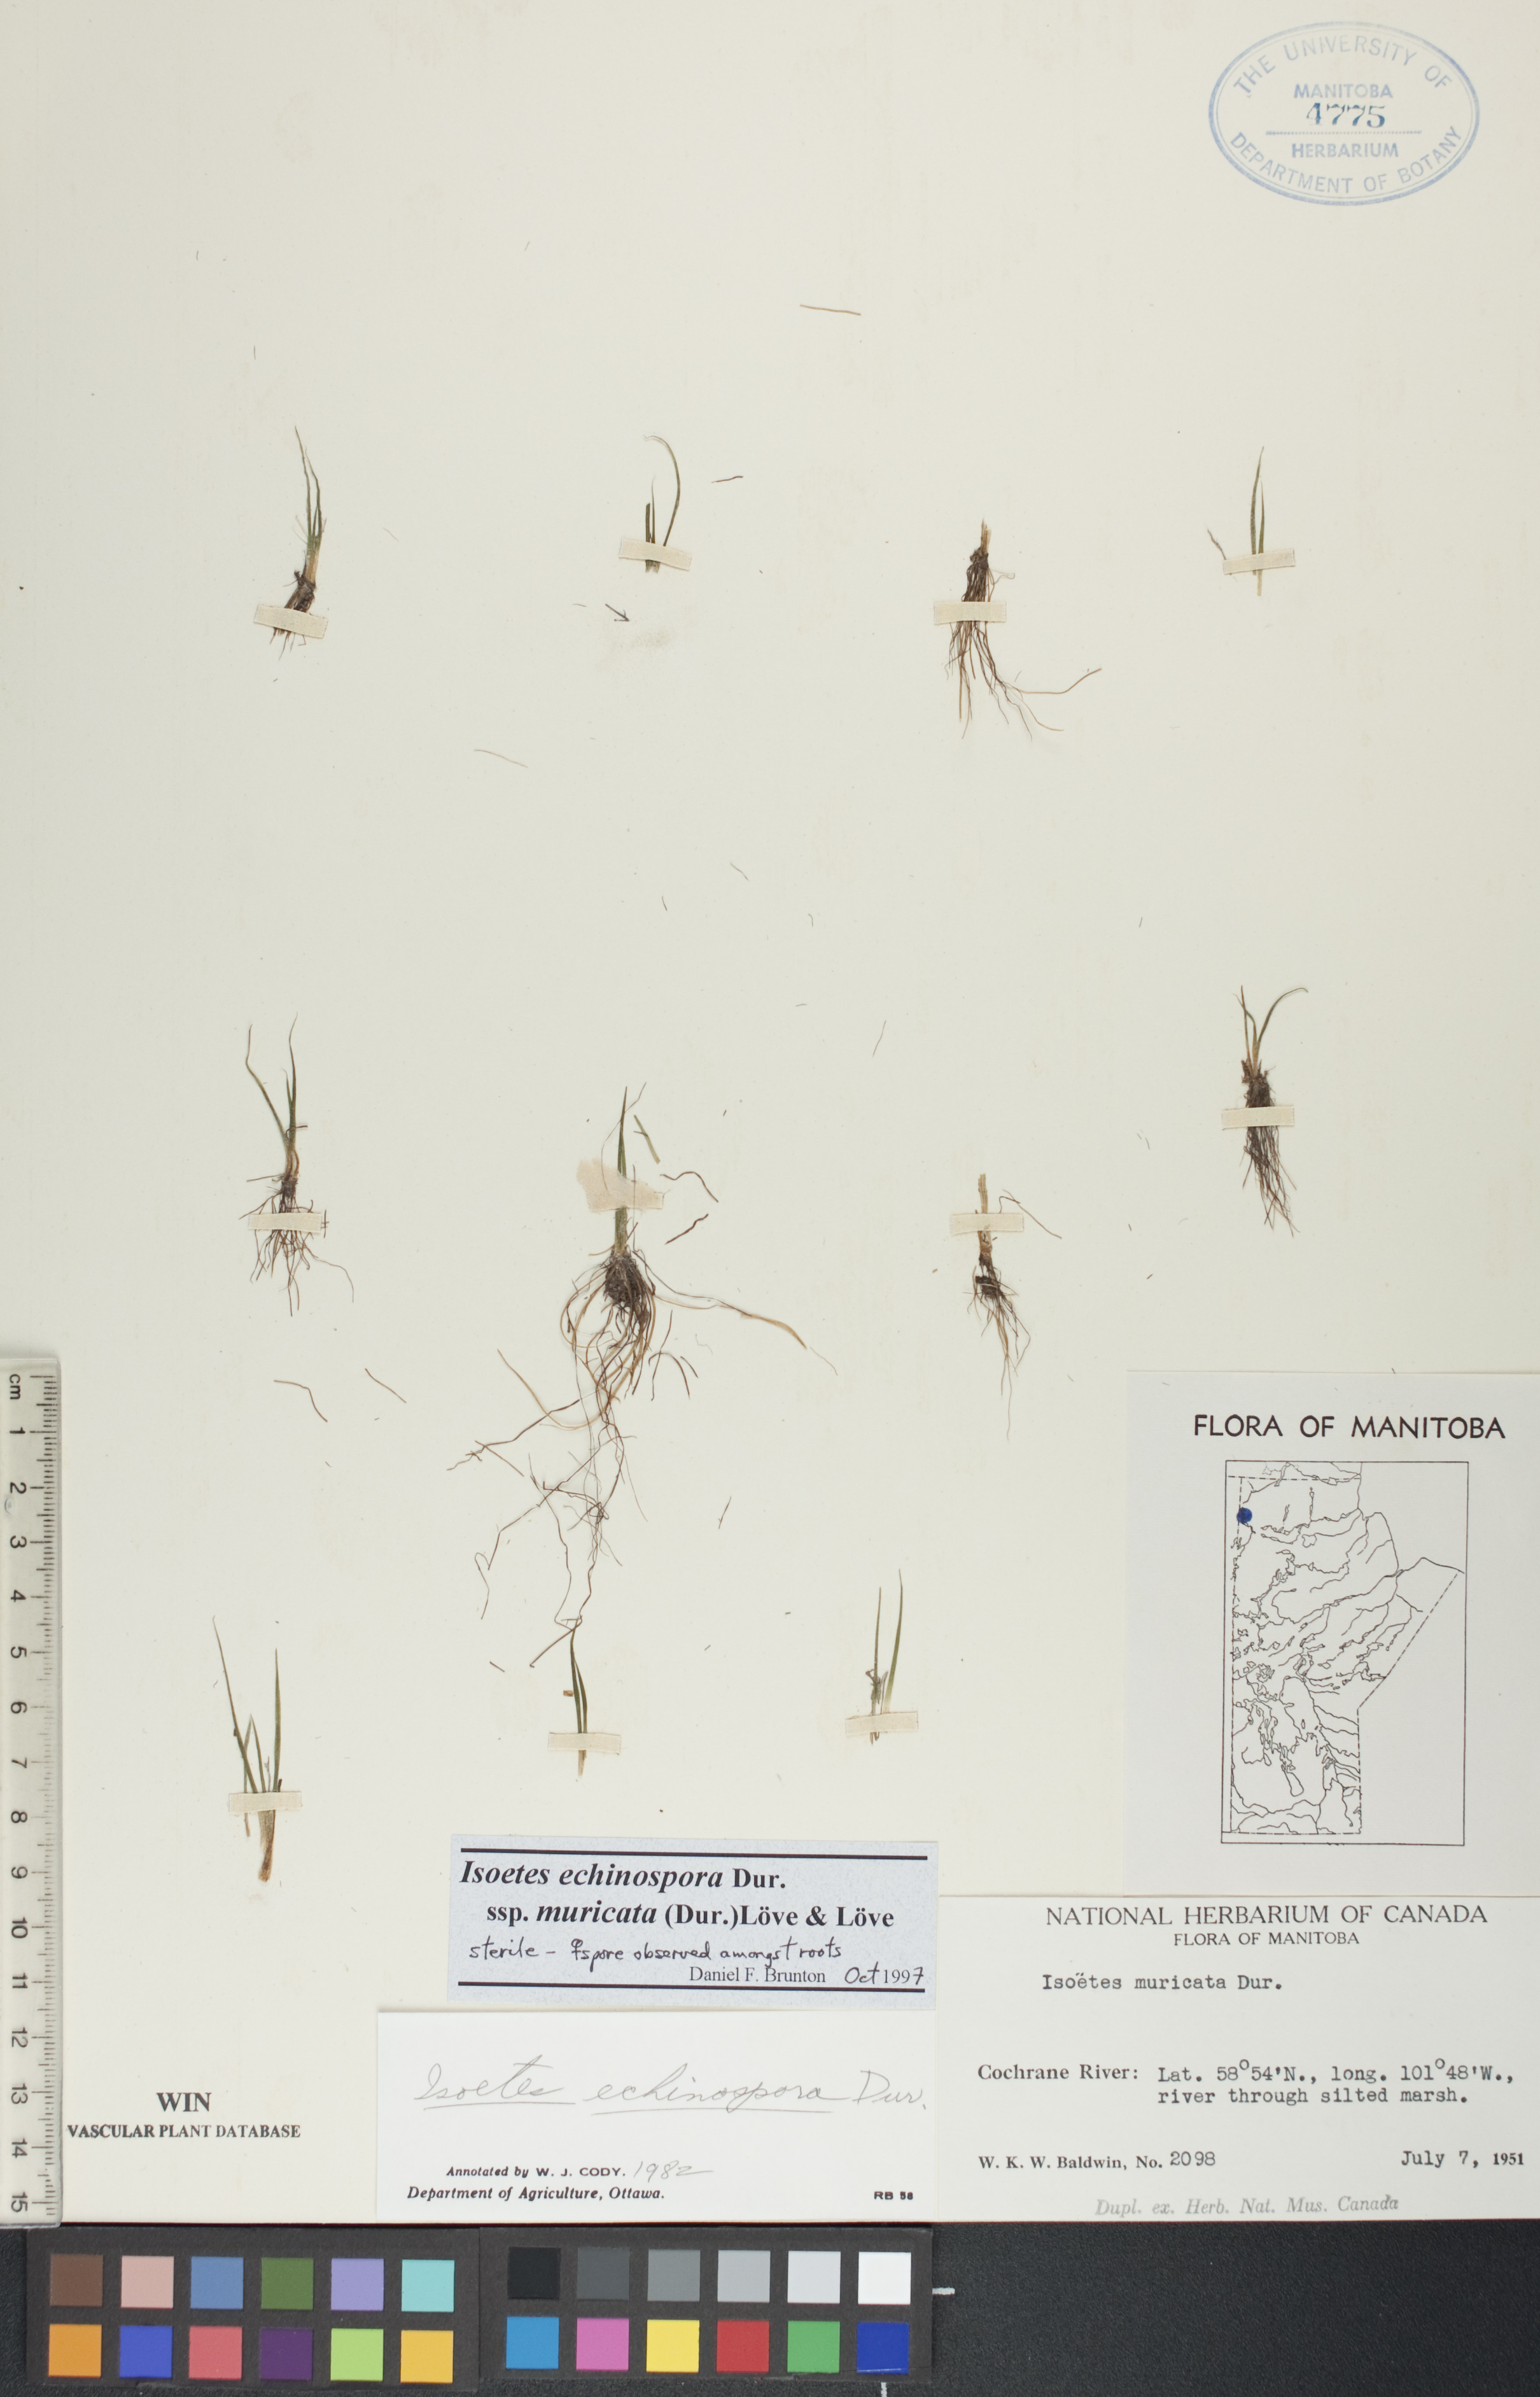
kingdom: Plantae
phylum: Tracheophyta
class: Lycopodiopsida
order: Isoetales
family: Isoetaceae
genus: Isoetes
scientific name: Isoetes echinospora
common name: Spring quillwort
